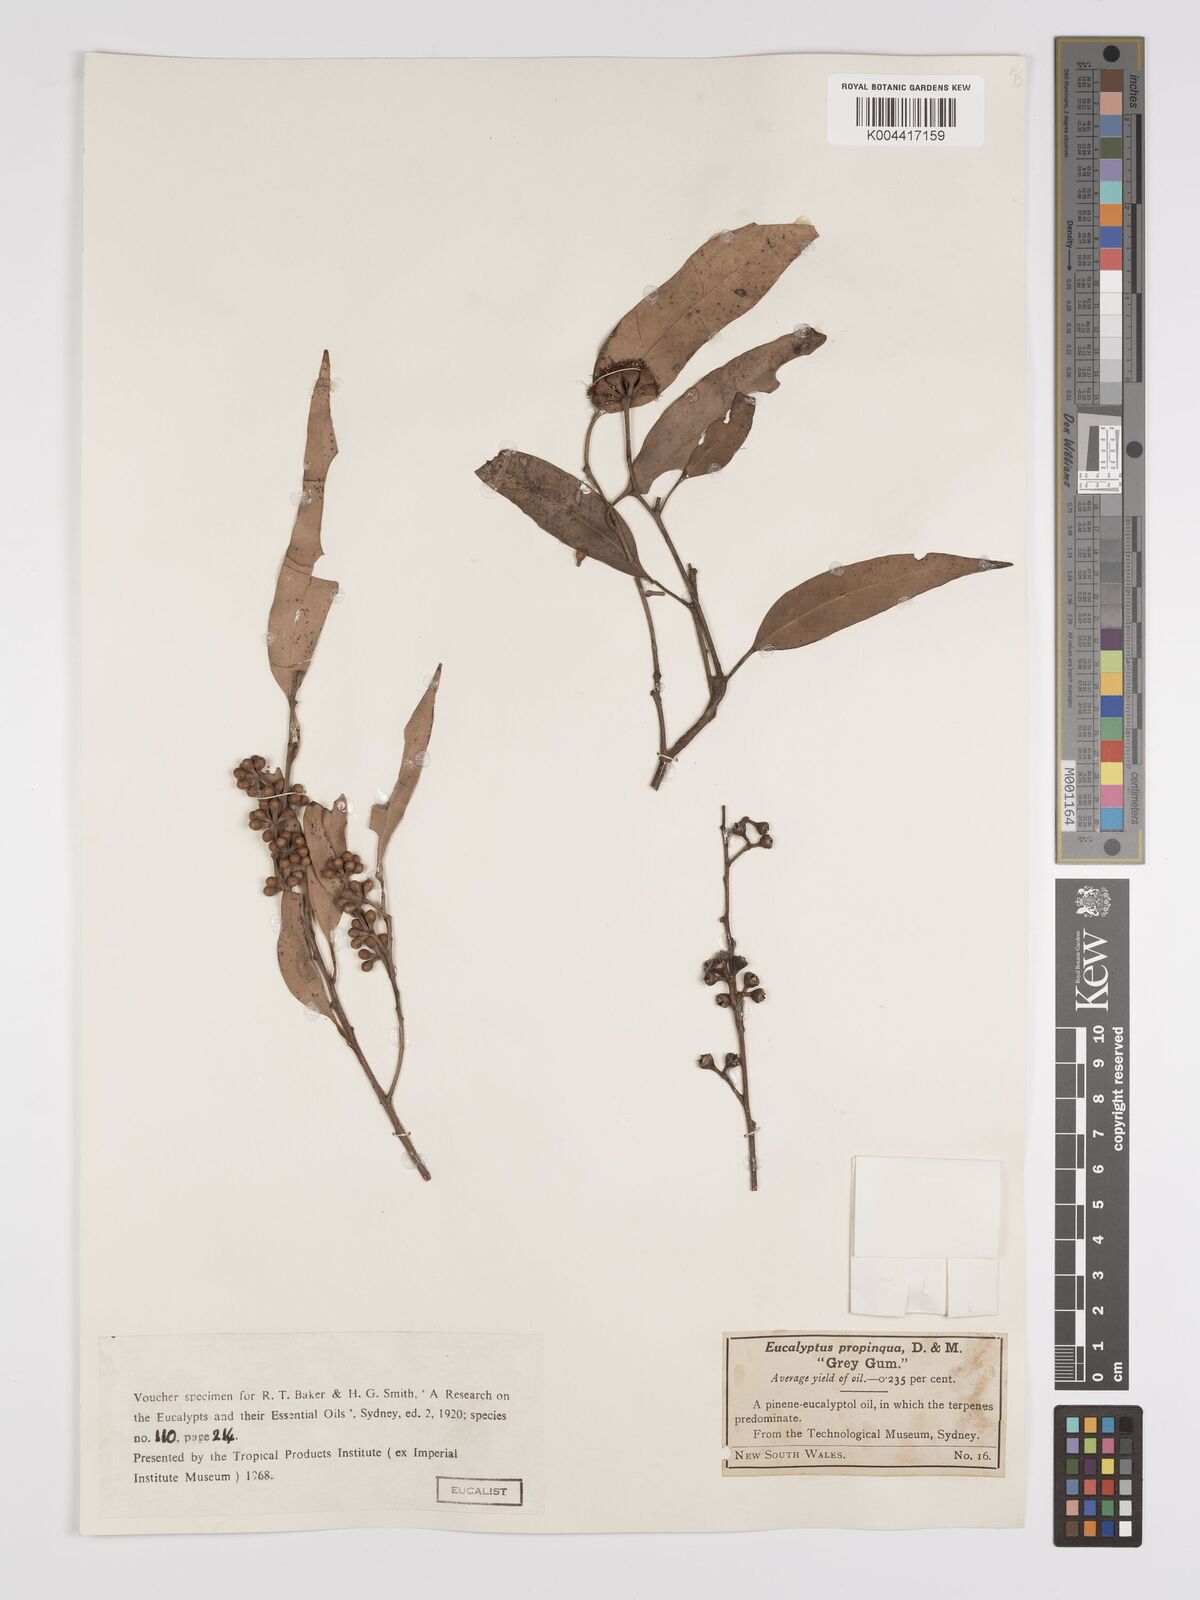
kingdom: Plantae
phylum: Tracheophyta
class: Magnoliopsida
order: Myrtales
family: Myrtaceae
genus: Eucalyptus
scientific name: Eucalyptus propinqua
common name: Grey-gum
